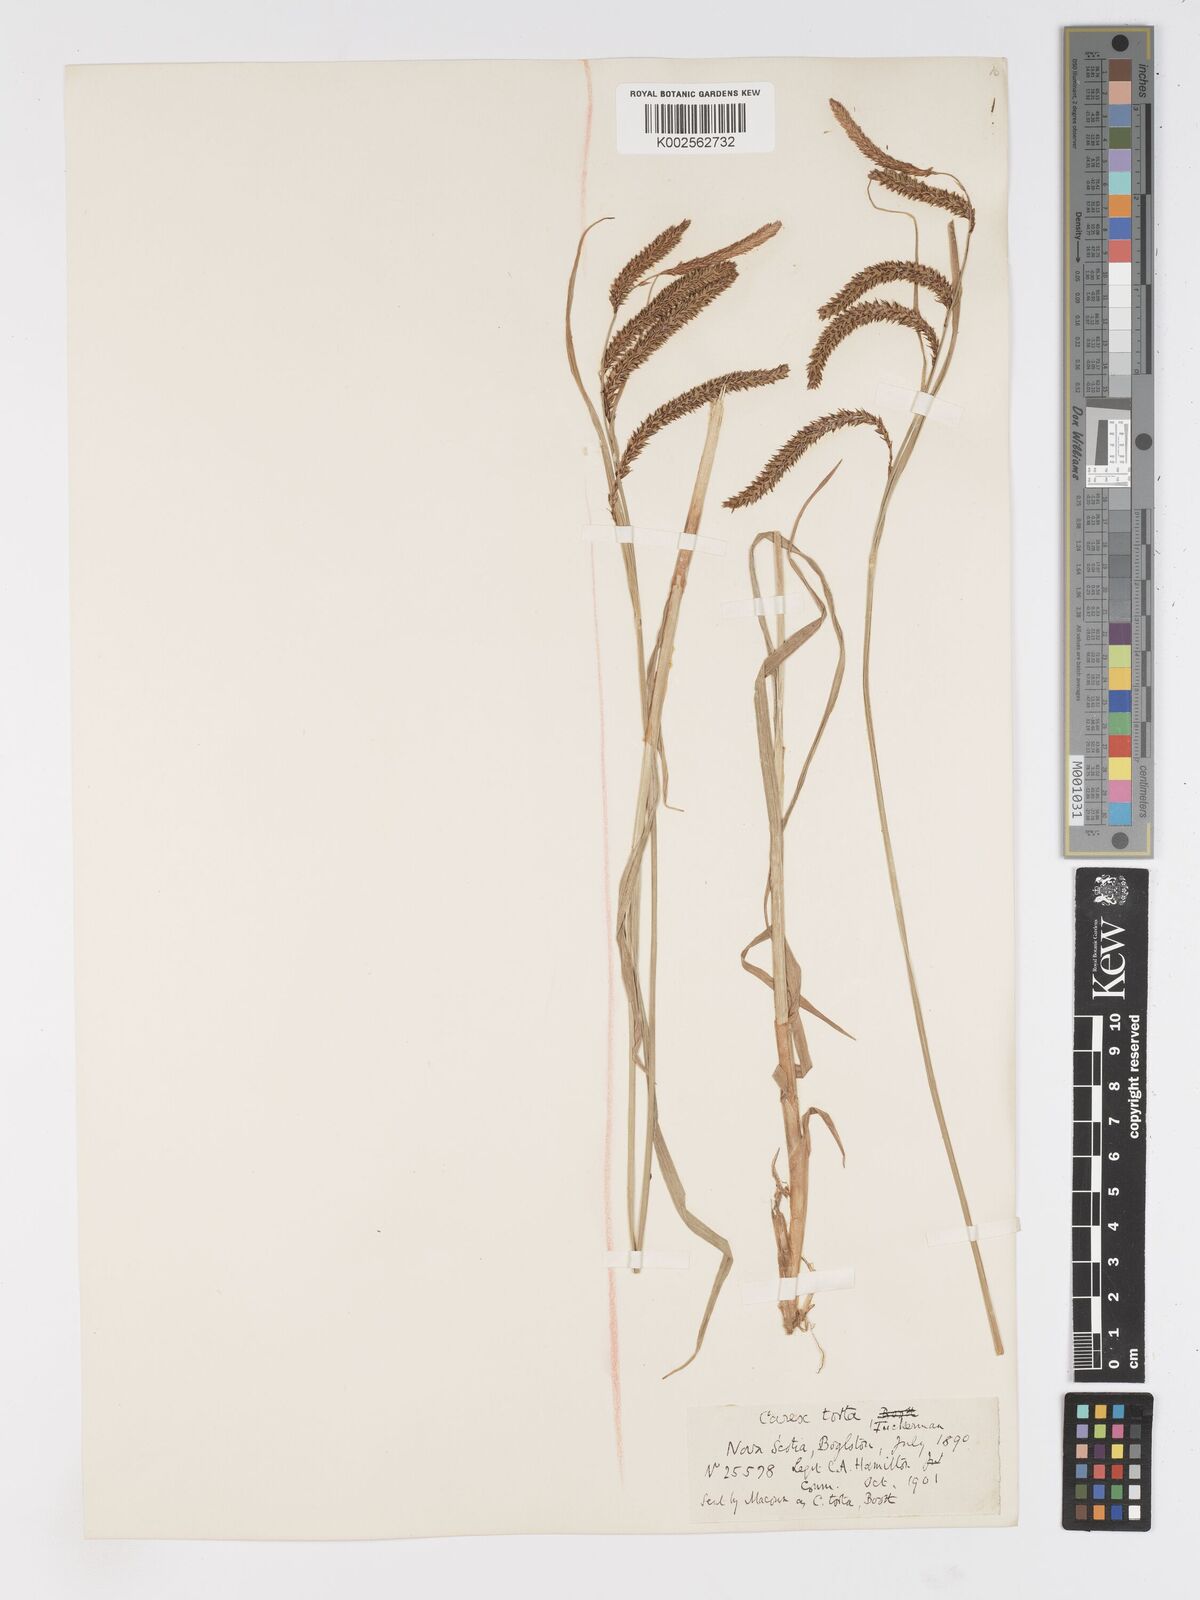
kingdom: Plantae
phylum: Tracheophyta
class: Liliopsida
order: Poales
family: Cyperaceae
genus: Carex
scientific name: Carex torta
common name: Twisted sedge
